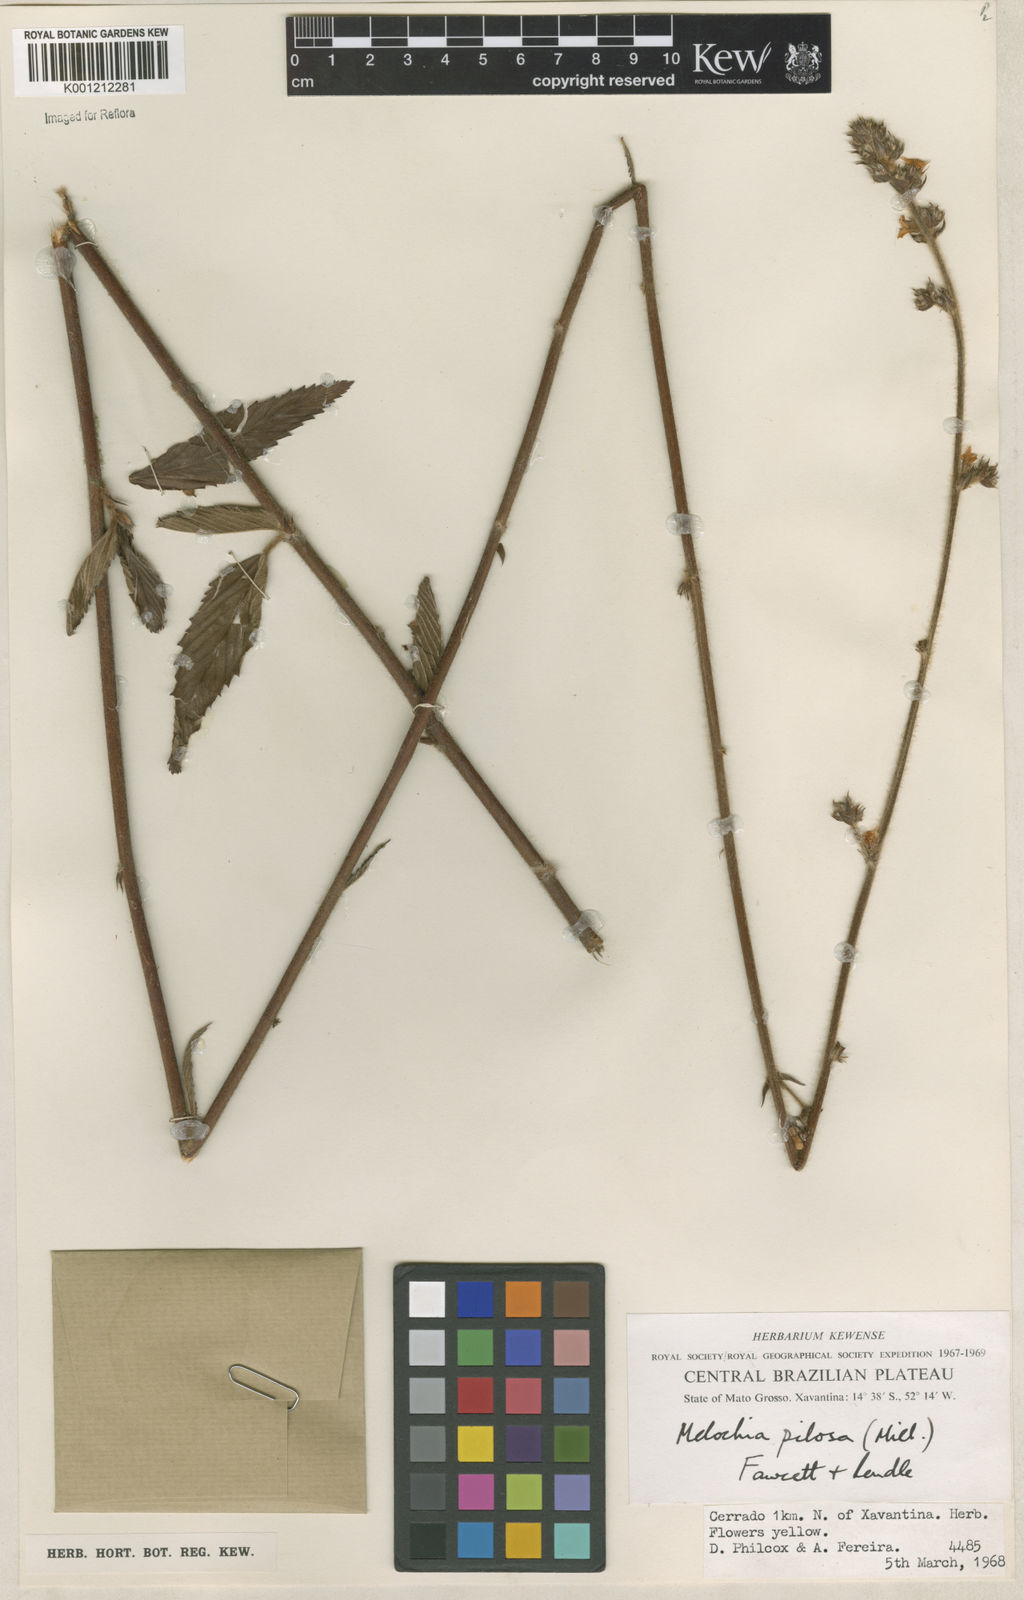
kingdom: Plantae
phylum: Tracheophyta
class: Magnoliopsida
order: Malvales
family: Malvaceae
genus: Melochia
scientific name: Melochia pilosa
